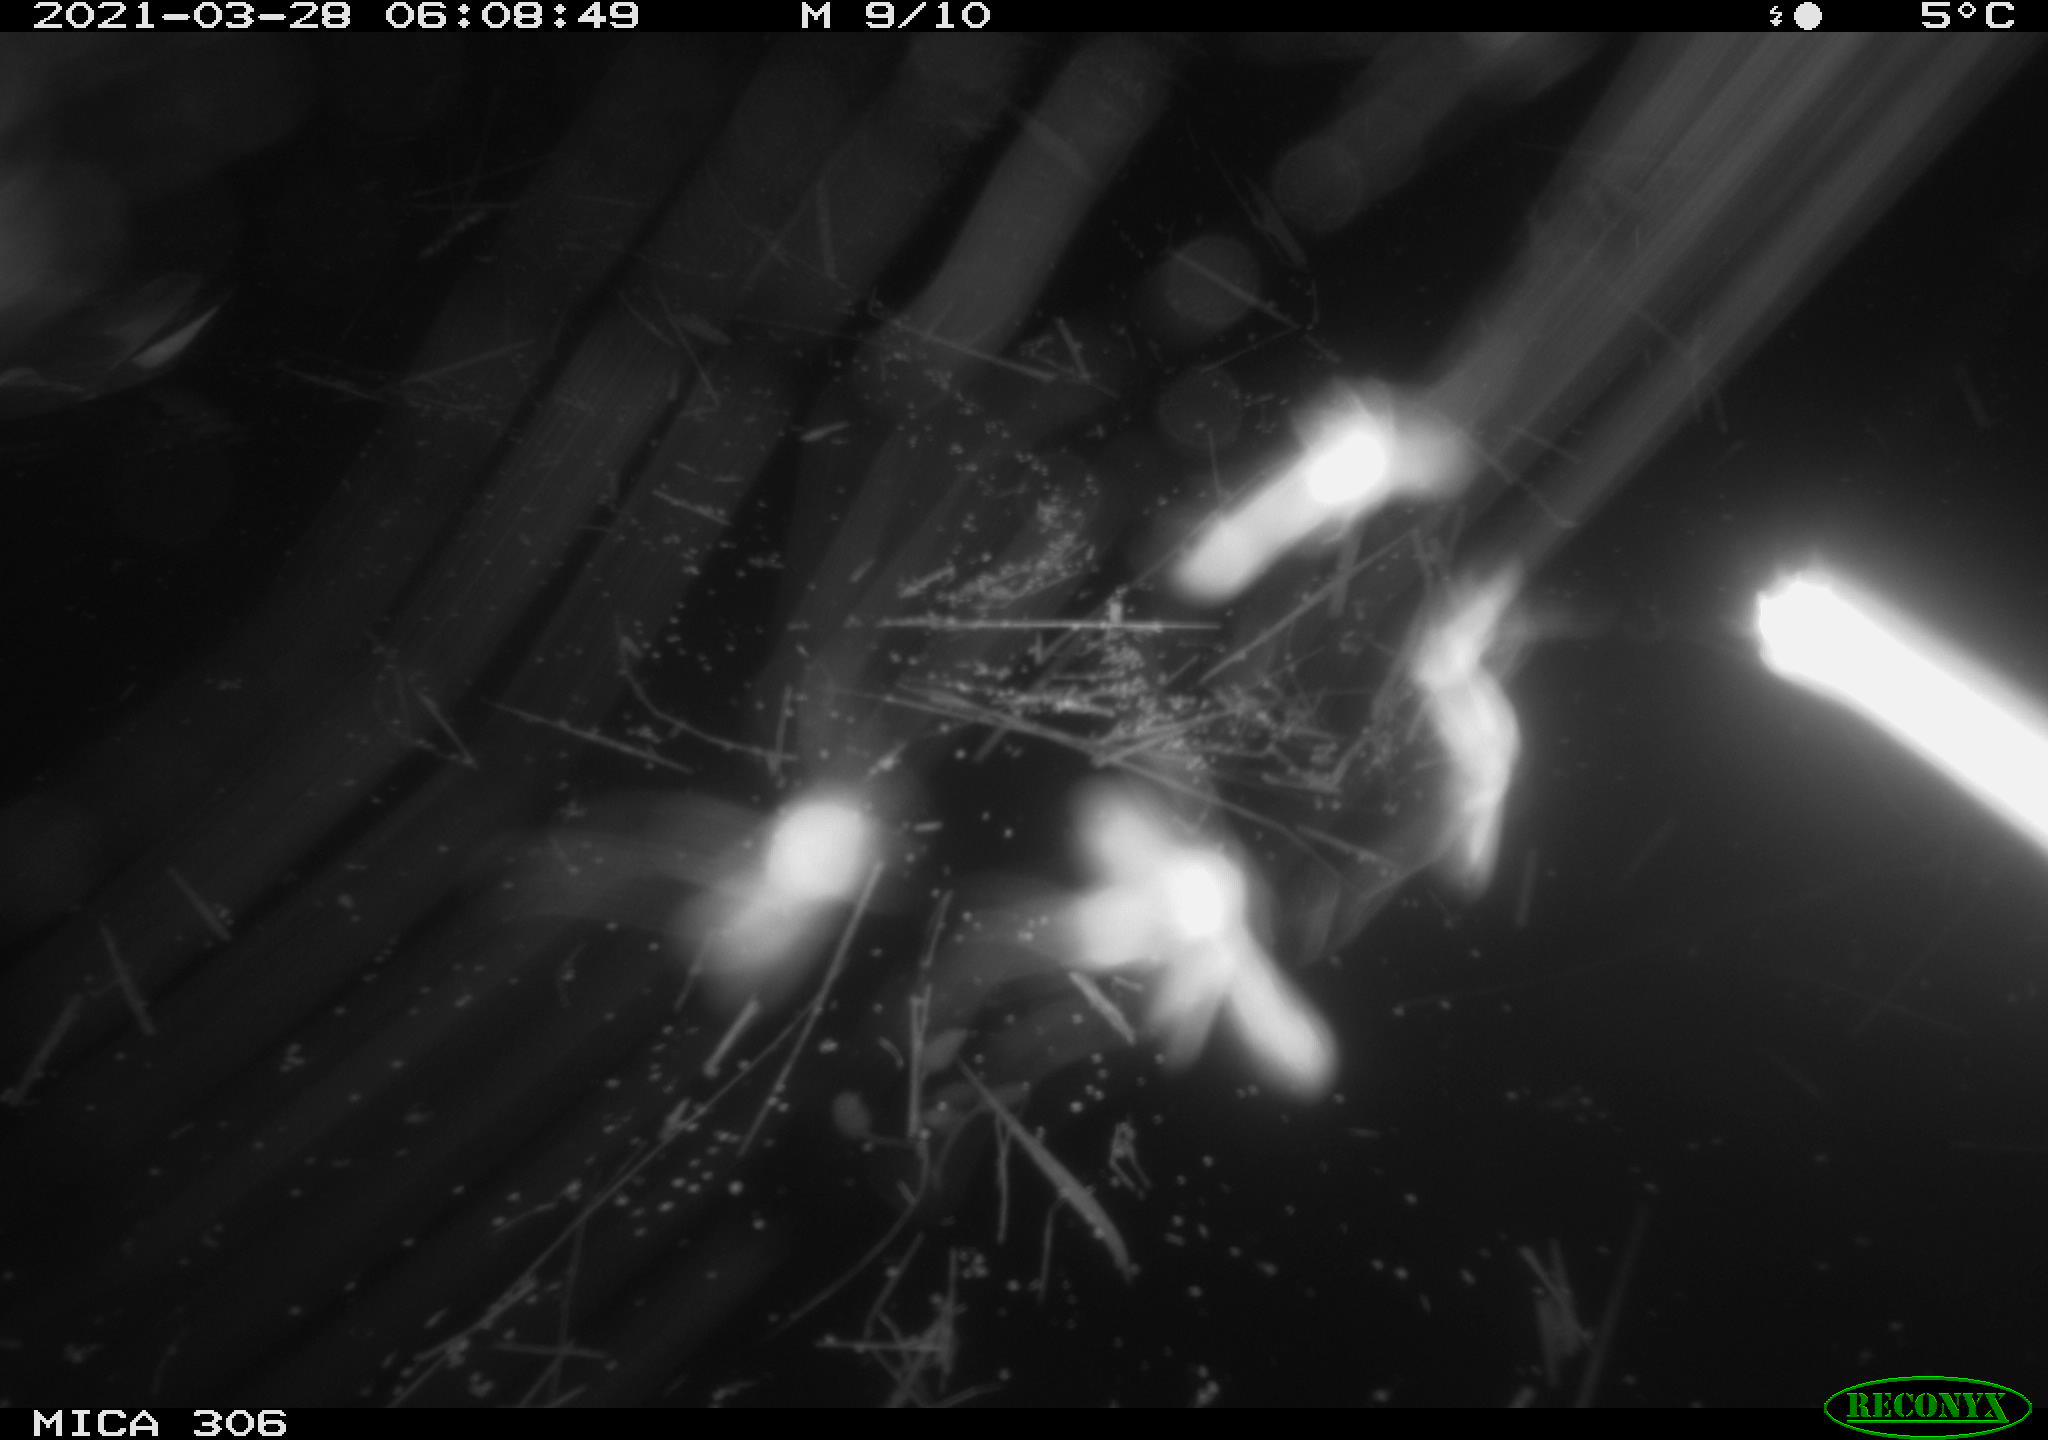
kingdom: Animalia
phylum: Chordata
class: Aves
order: Gruiformes
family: Rallidae
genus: Gallinula
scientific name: Gallinula chloropus
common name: Common moorhen
